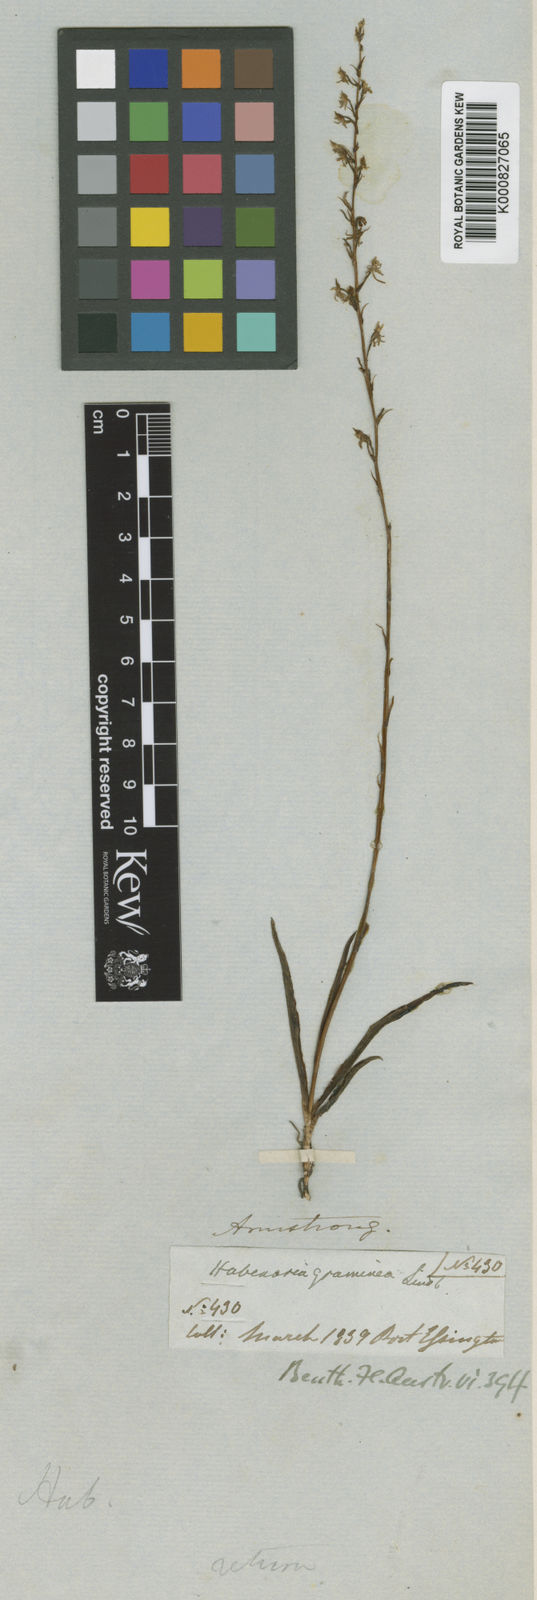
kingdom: Plantae
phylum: Tracheophyta
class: Liliopsida
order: Asparagales
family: Orchidaceae
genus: Habenaria
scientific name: Habenaria khasiana
